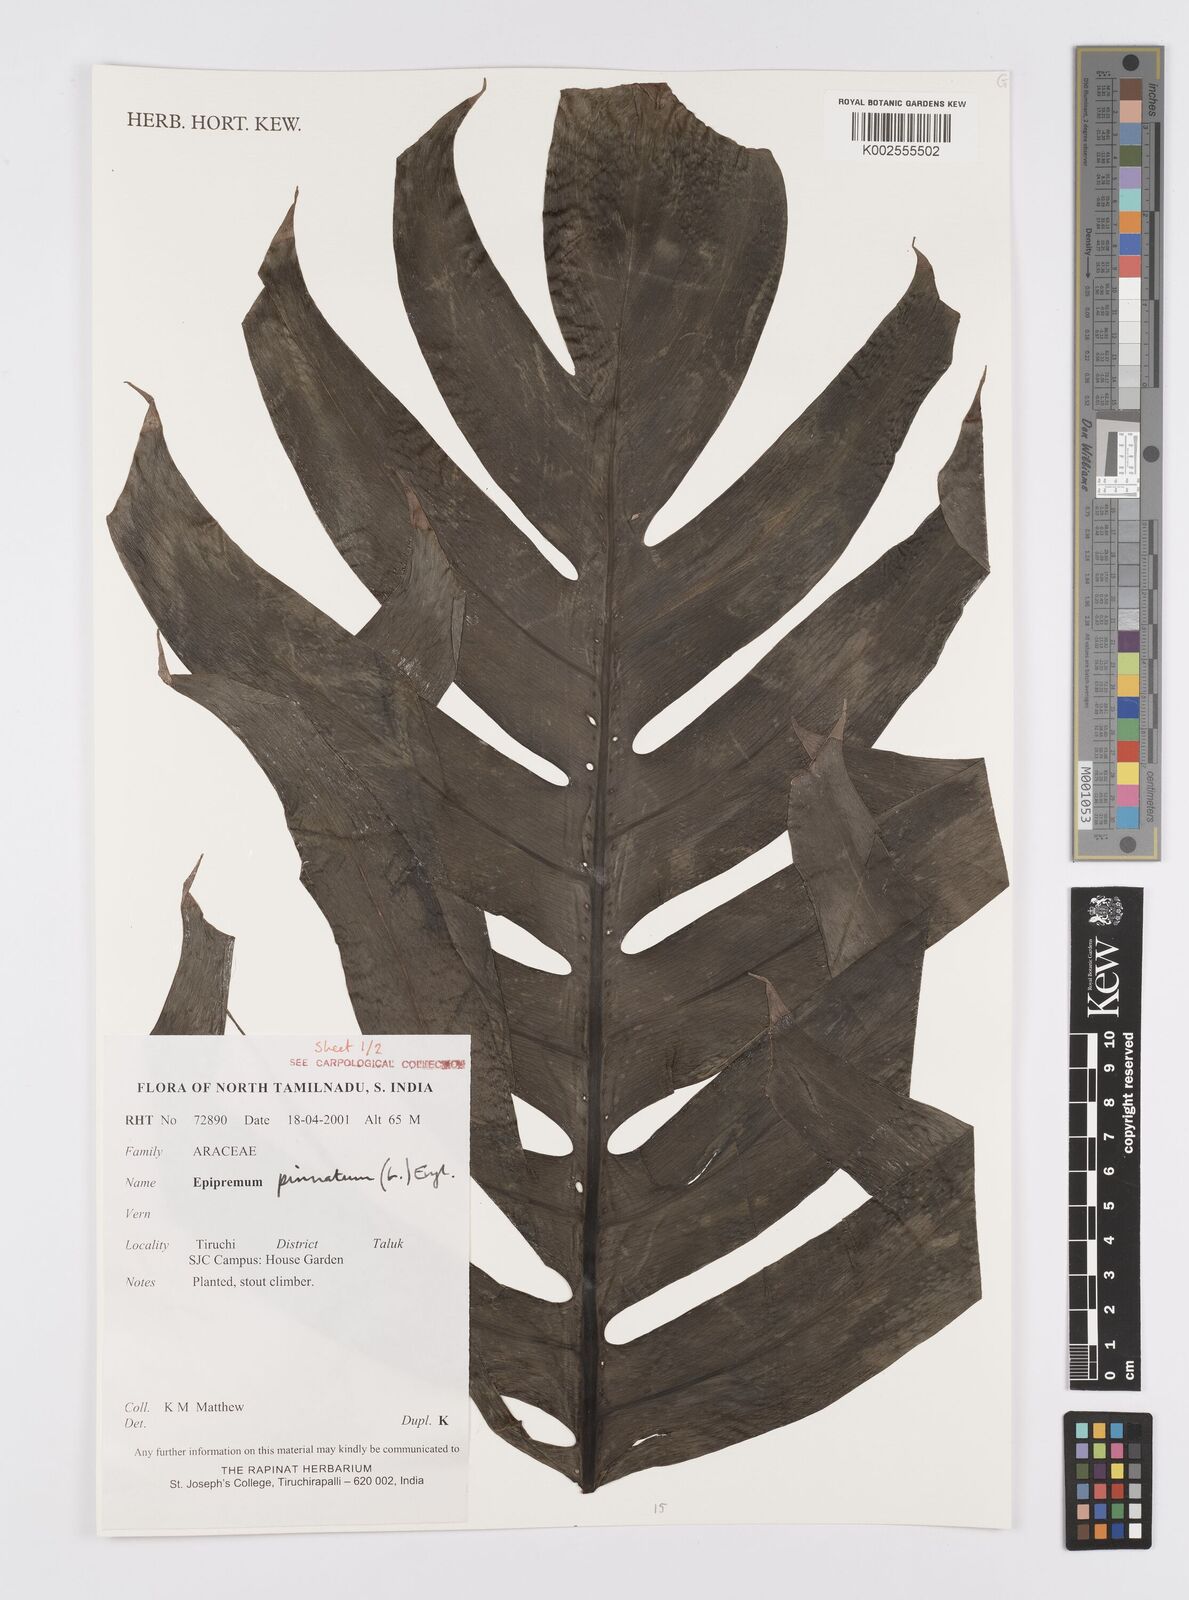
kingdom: Plantae
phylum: Tracheophyta
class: Liliopsida
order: Alismatales
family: Araceae
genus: Epipremnum
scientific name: Epipremnum pinnatum
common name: Centipede tongavine
